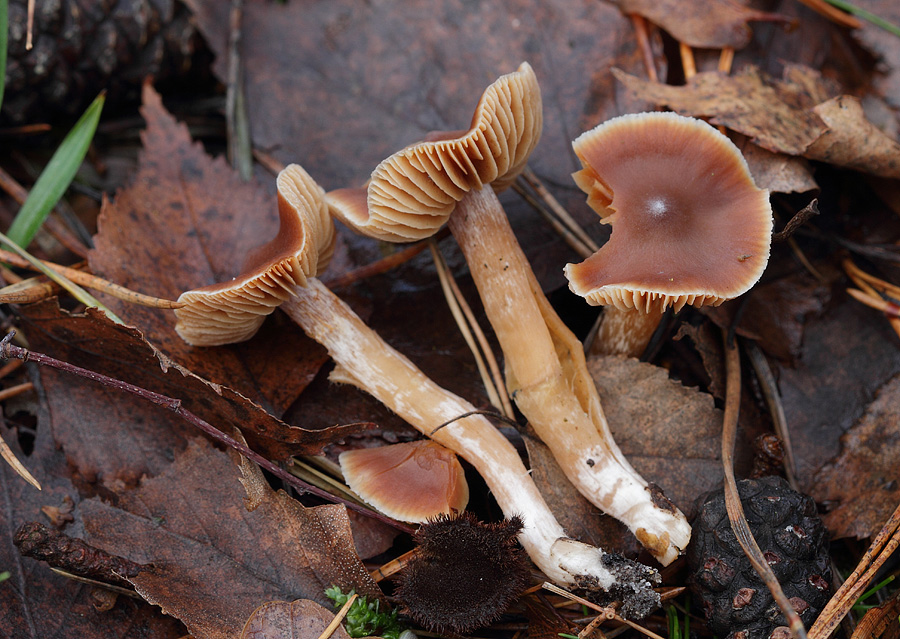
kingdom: Fungi
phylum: Basidiomycota
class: Agaricomycetes
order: Agaricales
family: Cortinariaceae
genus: Cortinarius
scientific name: Cortinarius
